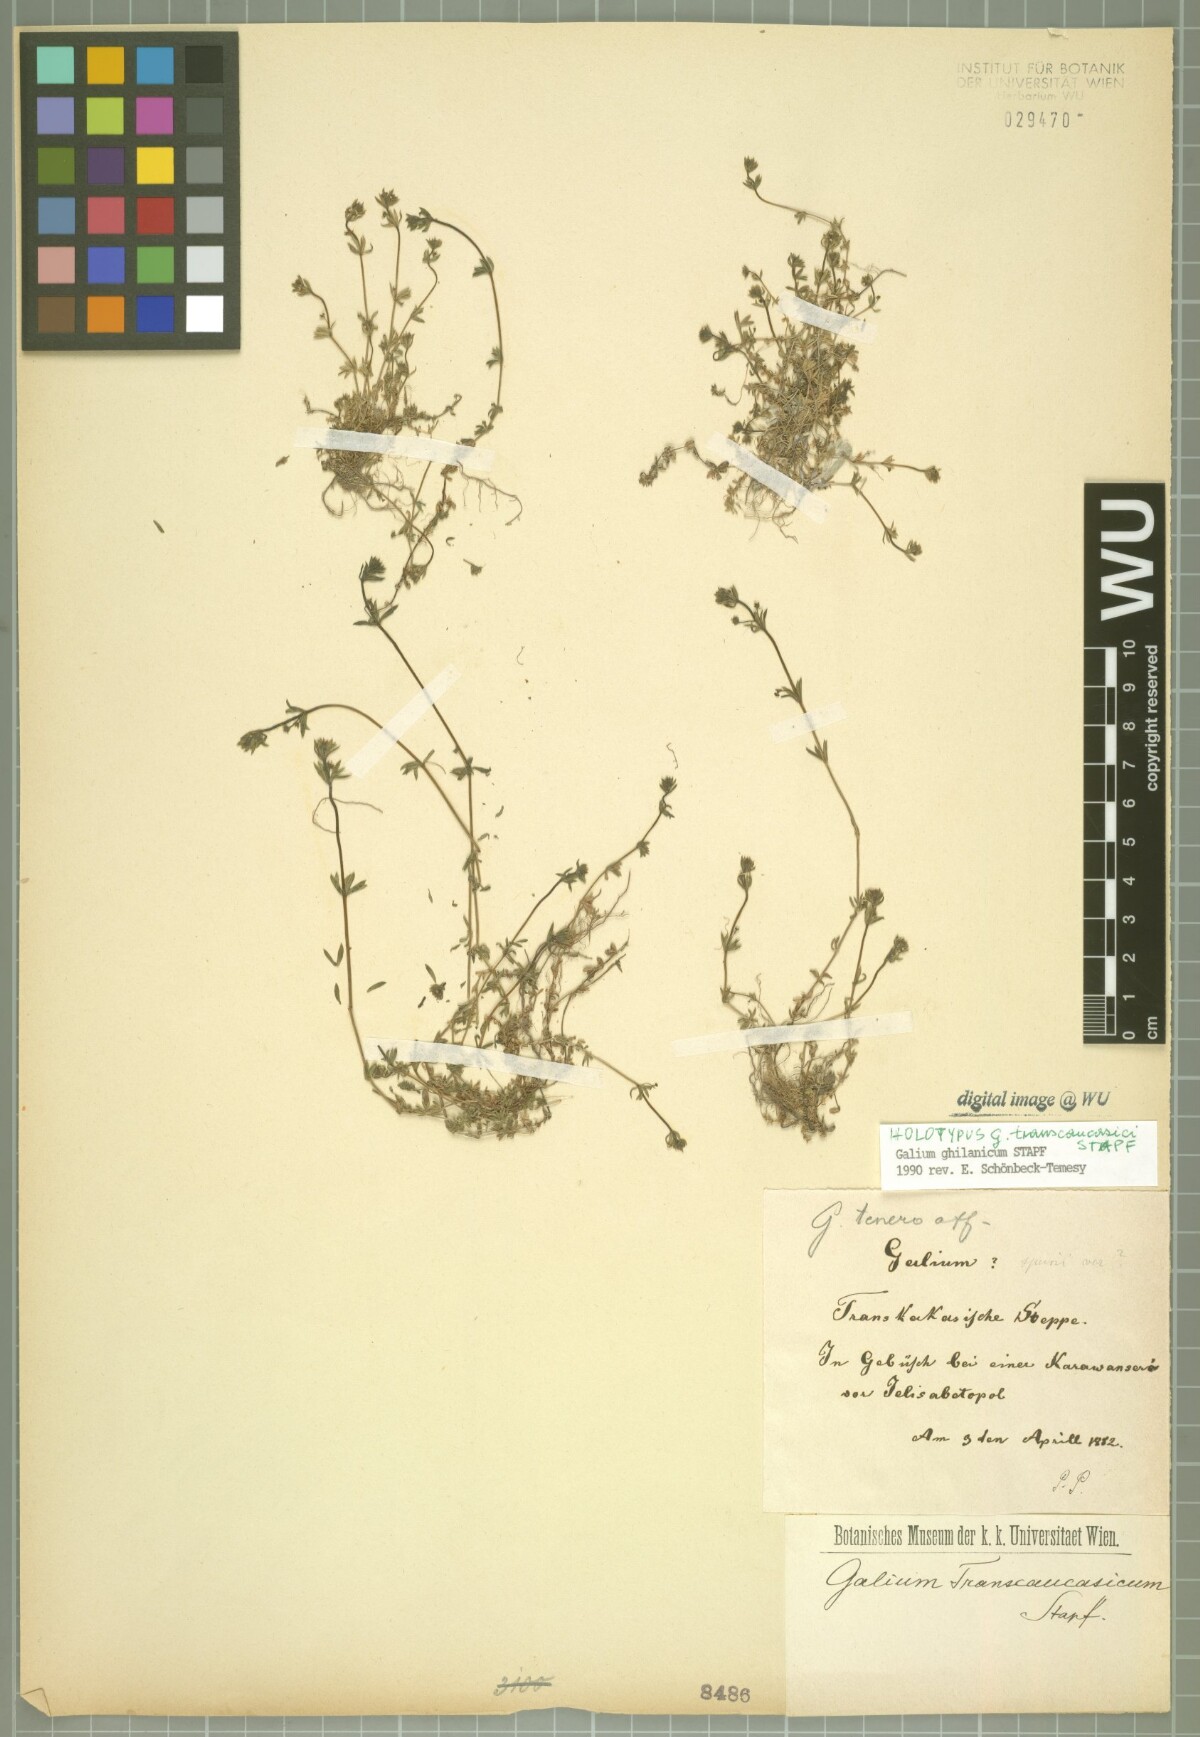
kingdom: Plantae
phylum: Tracheophyta
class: Magnoliopsida
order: Gentianales
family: Rubiaceae
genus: Galium
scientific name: Galium ghilanicum
